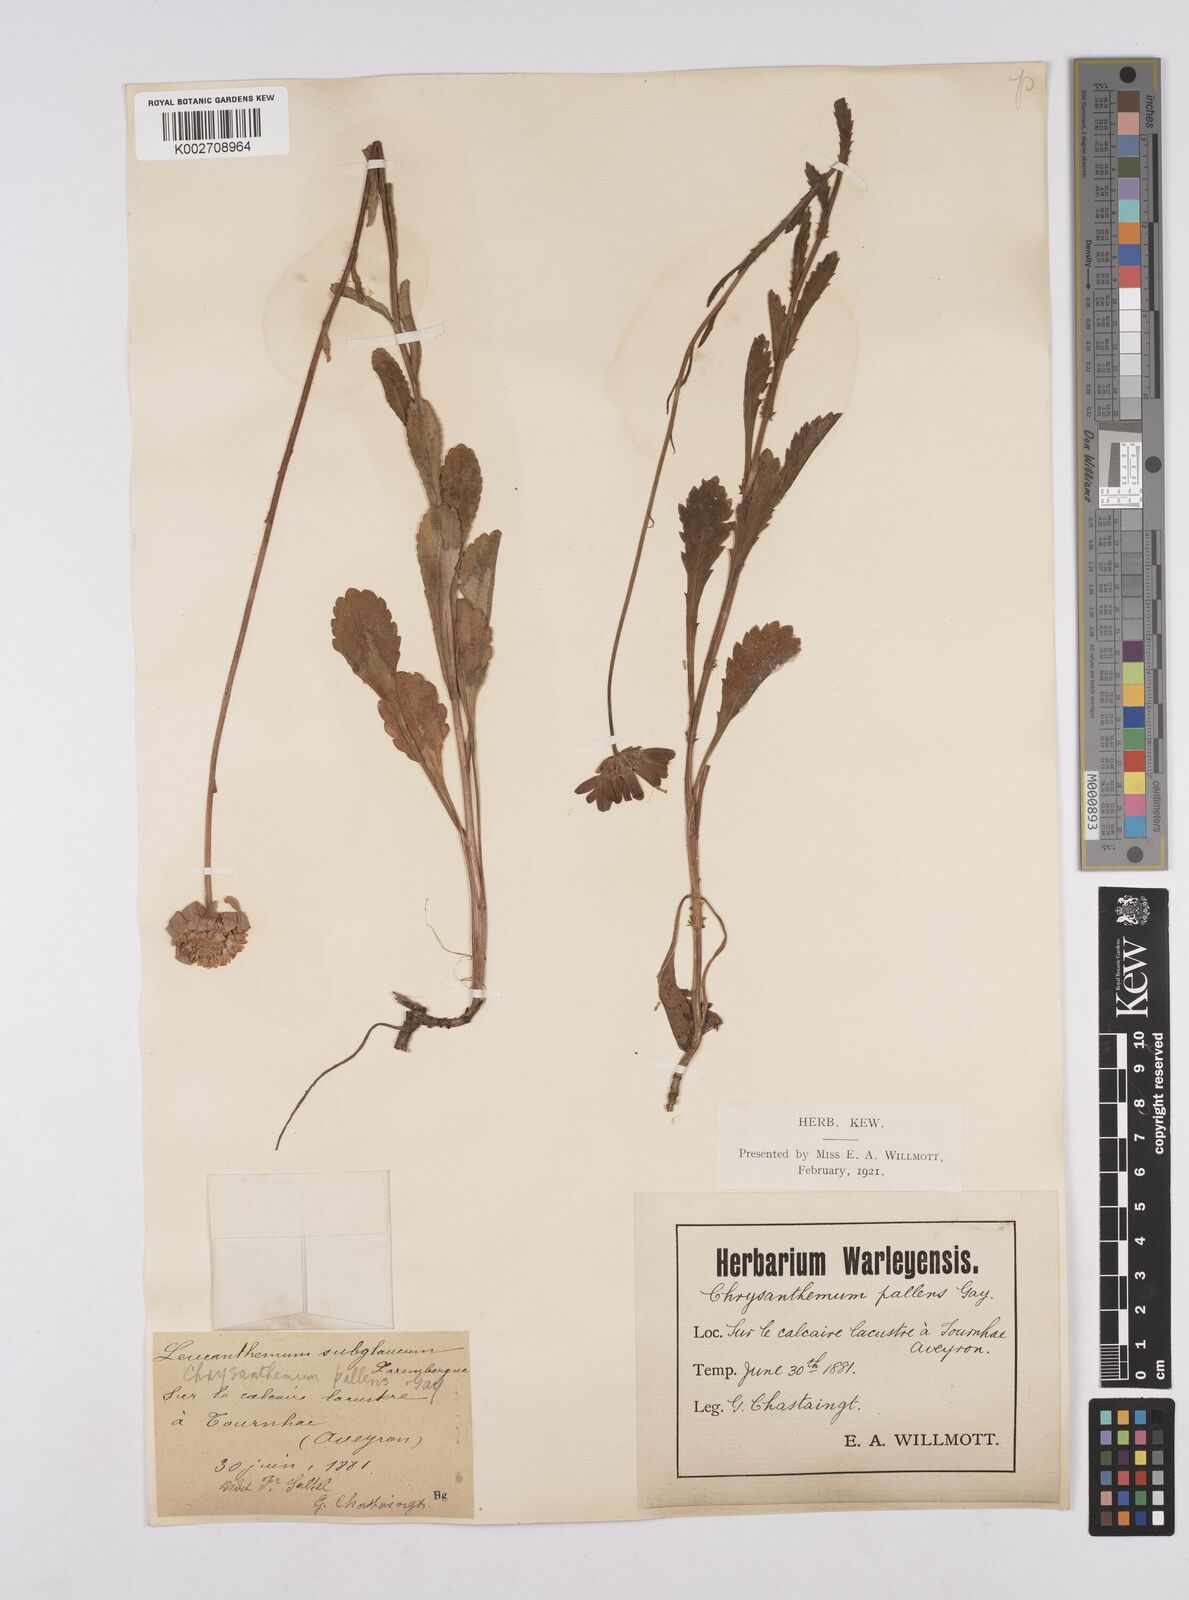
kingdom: Plantae
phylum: Tracheophyta
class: Magnoliopsida
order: Asterales
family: Asteraceae
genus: Leucanthemum
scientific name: Leucanthemum vulgare
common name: Oxeye daisy
